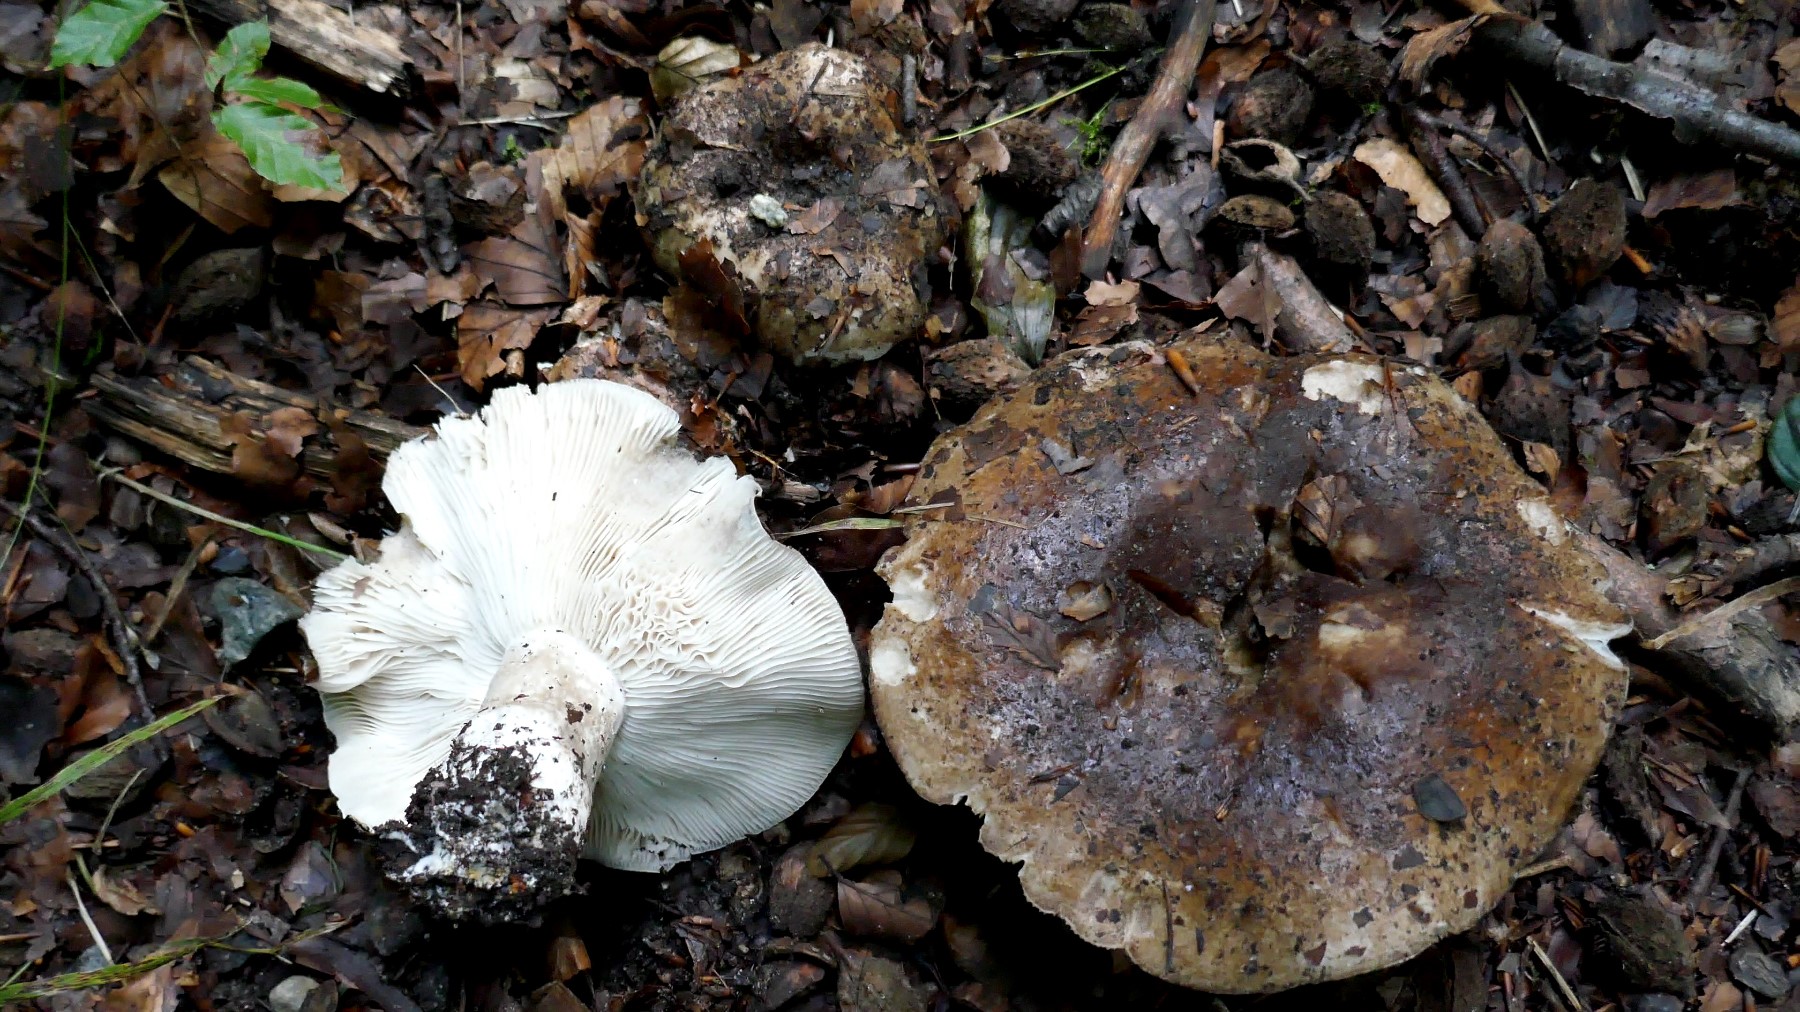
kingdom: Fungi
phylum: Basidiomycota
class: Agaricomycetes
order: Russulales
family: Russulaceae
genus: Russula
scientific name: Russula densifolia
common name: tætbladet skørhat
